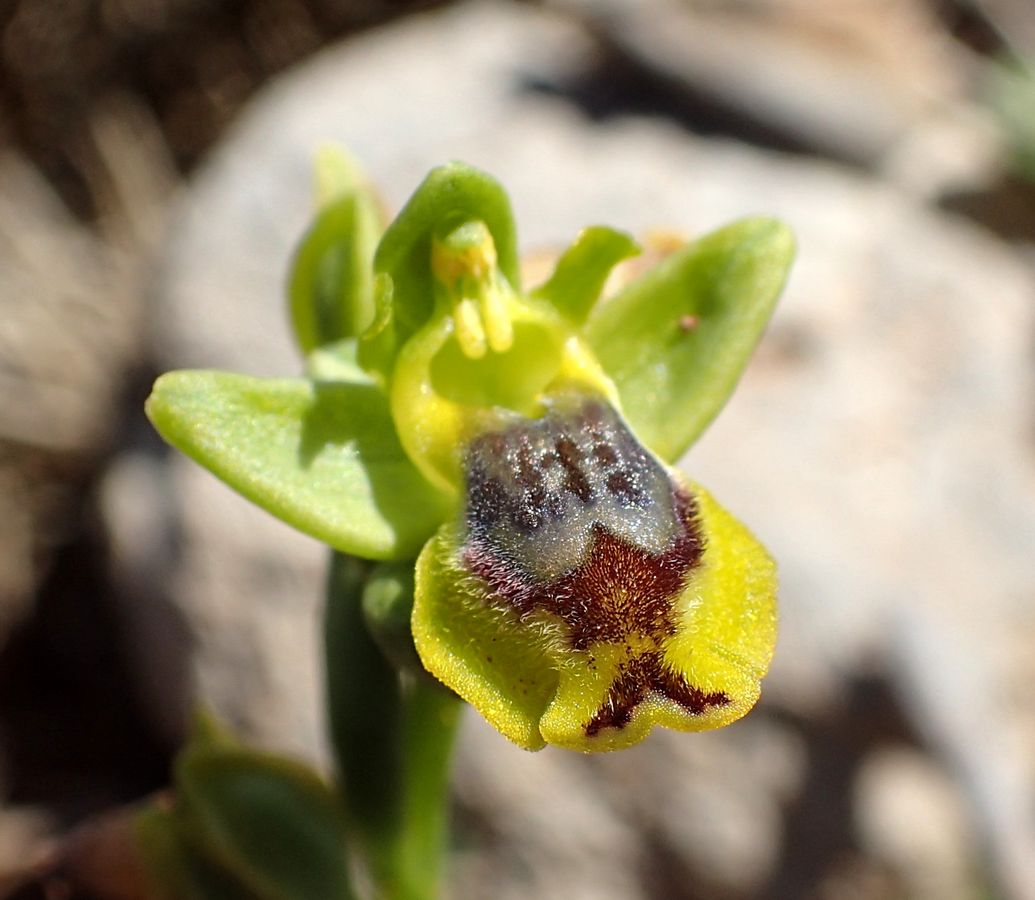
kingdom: Plantae
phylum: Tracheophyta
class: Liliopsida
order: Asparagales
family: Orchidaceae
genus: Ophrys
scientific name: Ophrys lutea
